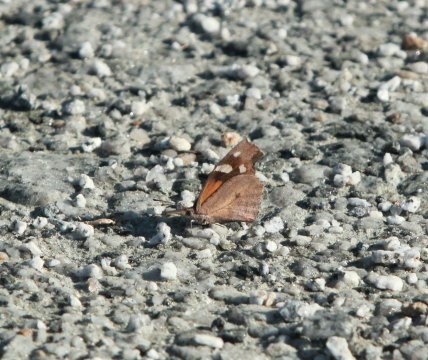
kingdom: Animalia
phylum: Arthropoda
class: Insecta
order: Lepidoptera
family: Nymphalidae
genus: Libytheana
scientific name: Libytheana carinenta
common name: American Snout
